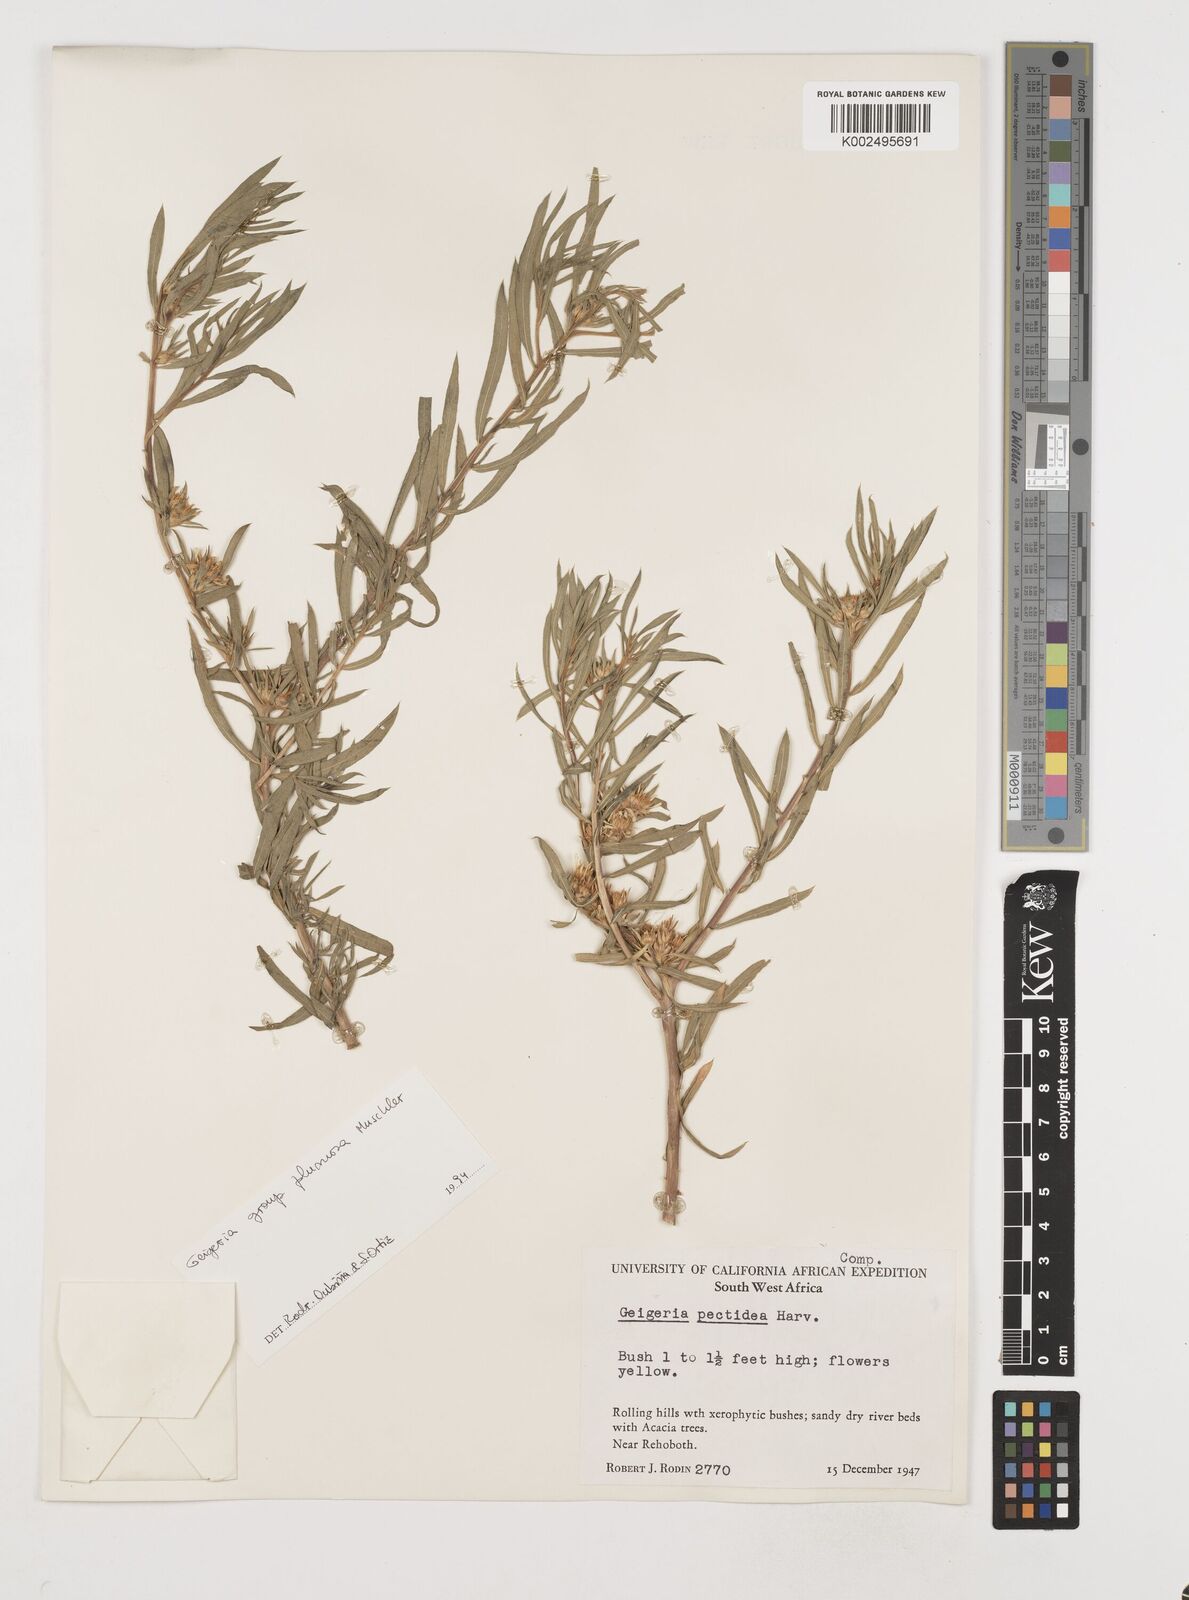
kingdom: Plantae
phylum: Tracheophyta
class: Magnoliopsida
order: Asterales
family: Asteraceae
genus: Geigeria
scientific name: Geigeria pectidea
